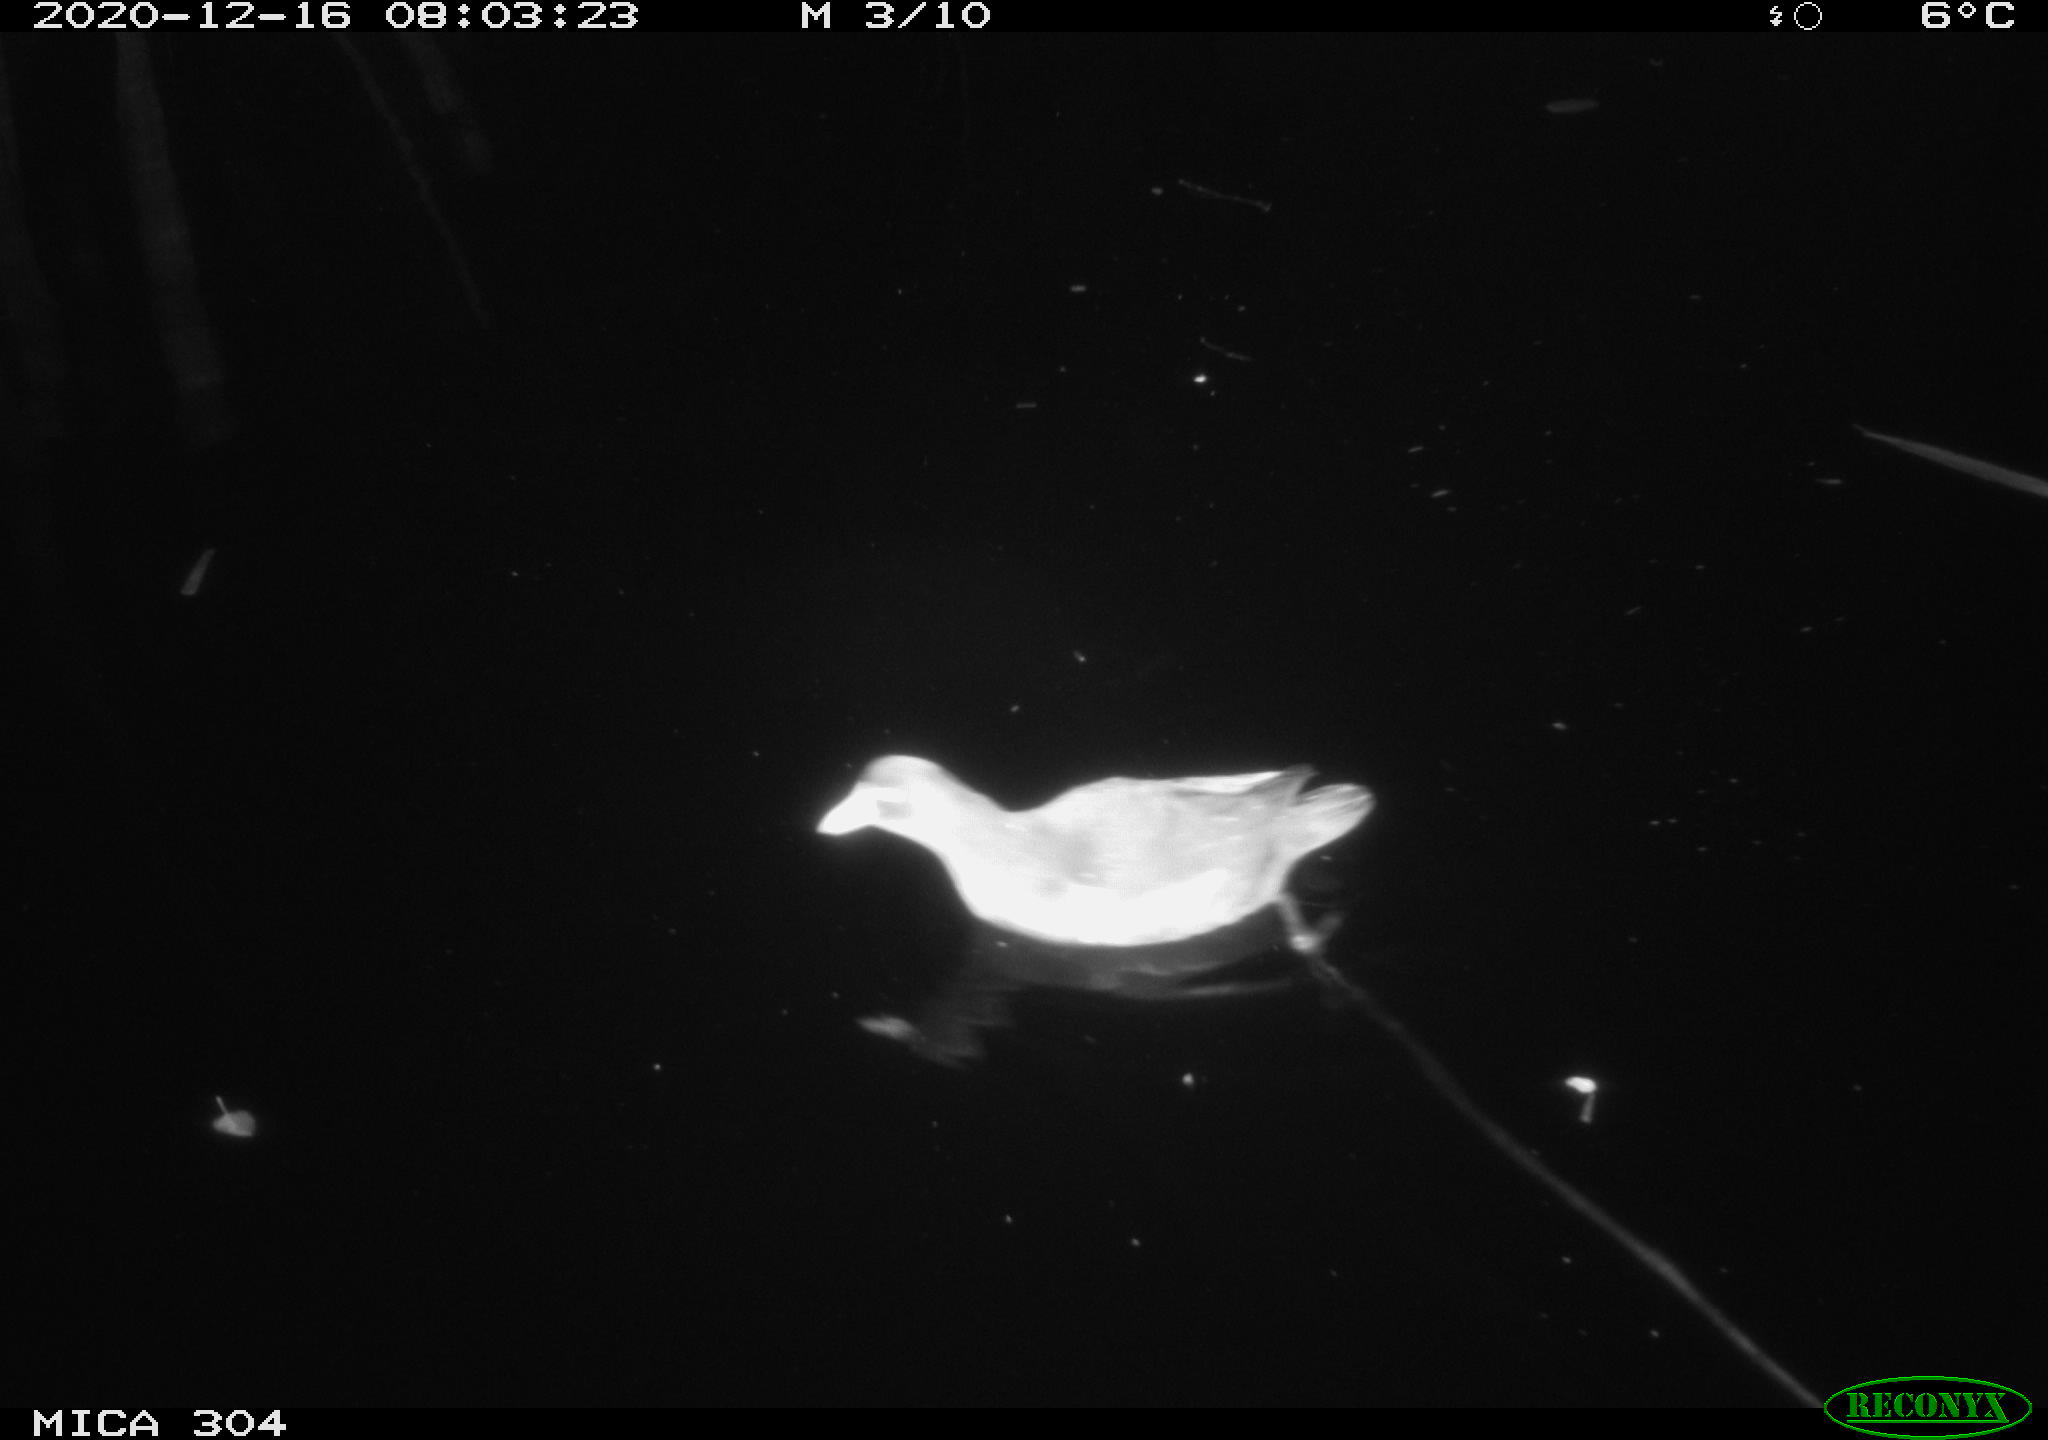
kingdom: Animalia
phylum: Chordata
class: Aves
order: Gruiformes
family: Rallidae
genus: Gallinula
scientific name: Gallinula chloropus
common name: Common moorhen
